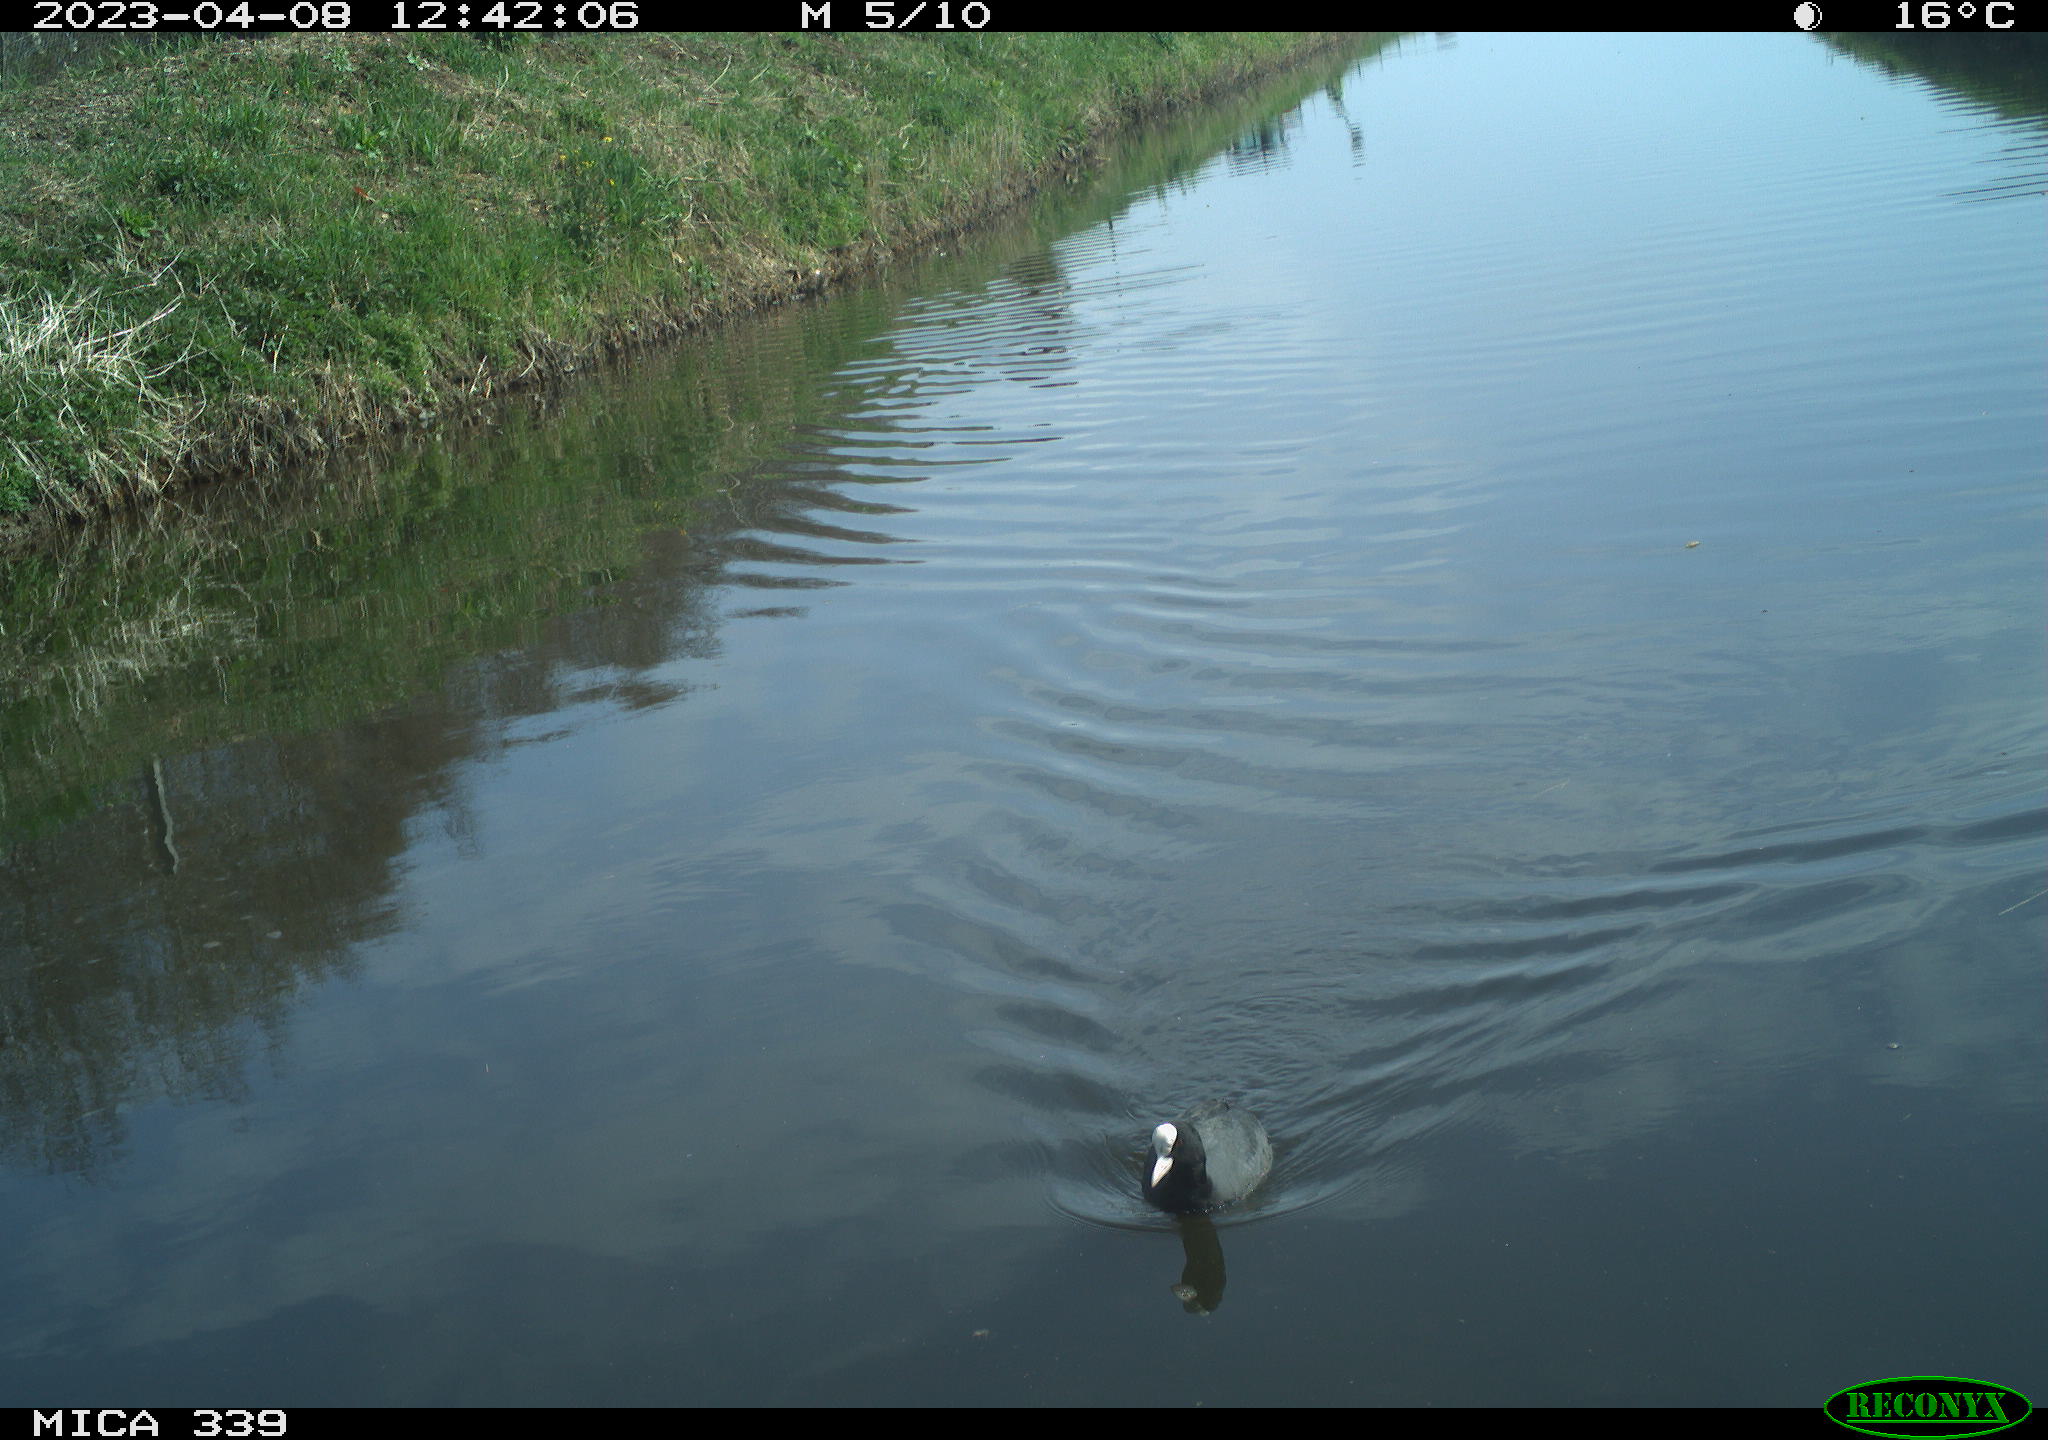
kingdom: Animalia
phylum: Chordata
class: Aves
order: Gruiformes
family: Rallidae
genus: Fulica
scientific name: Fulica atra
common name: Eurasian coot
